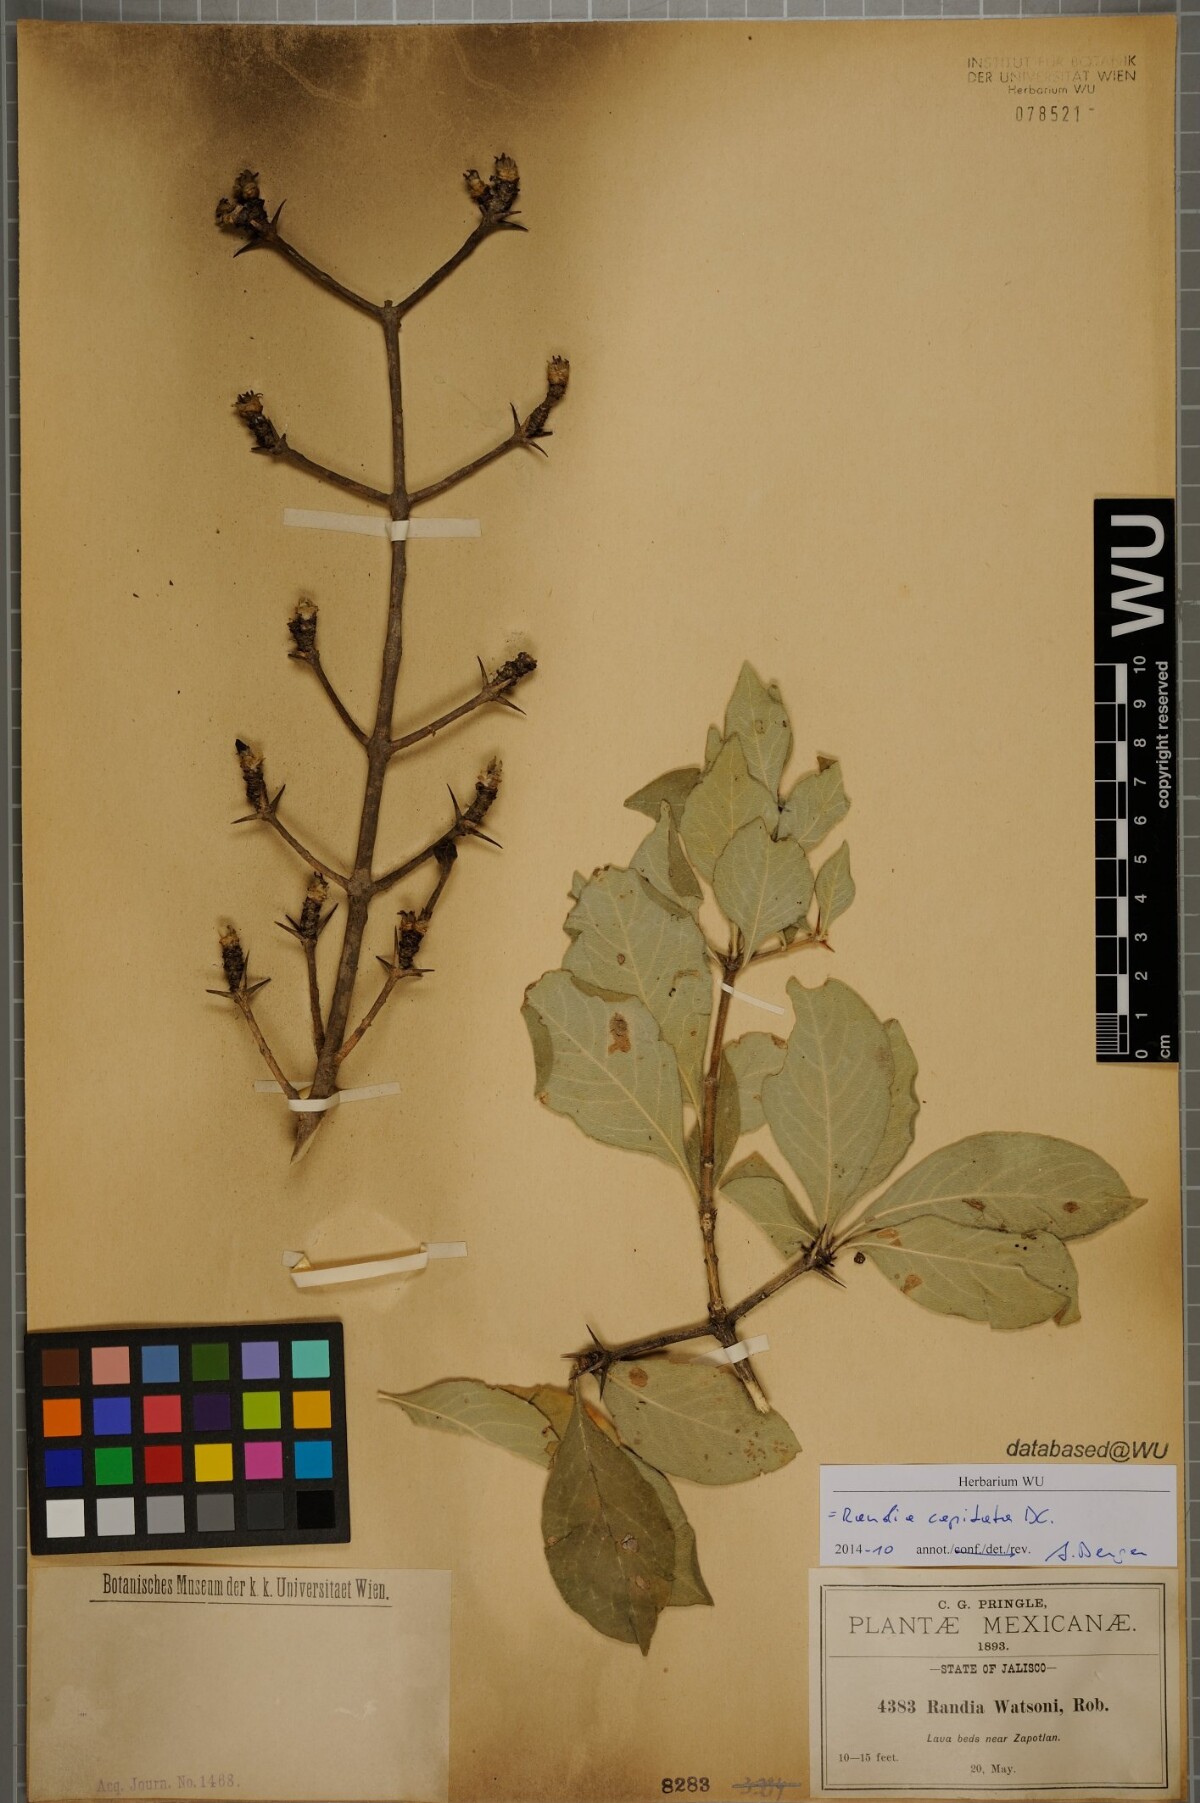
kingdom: Plantae
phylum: Tracheophyta
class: Magnoliopsida
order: Gentianales
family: Rubiaceae
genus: Randia
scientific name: Randia capitata
